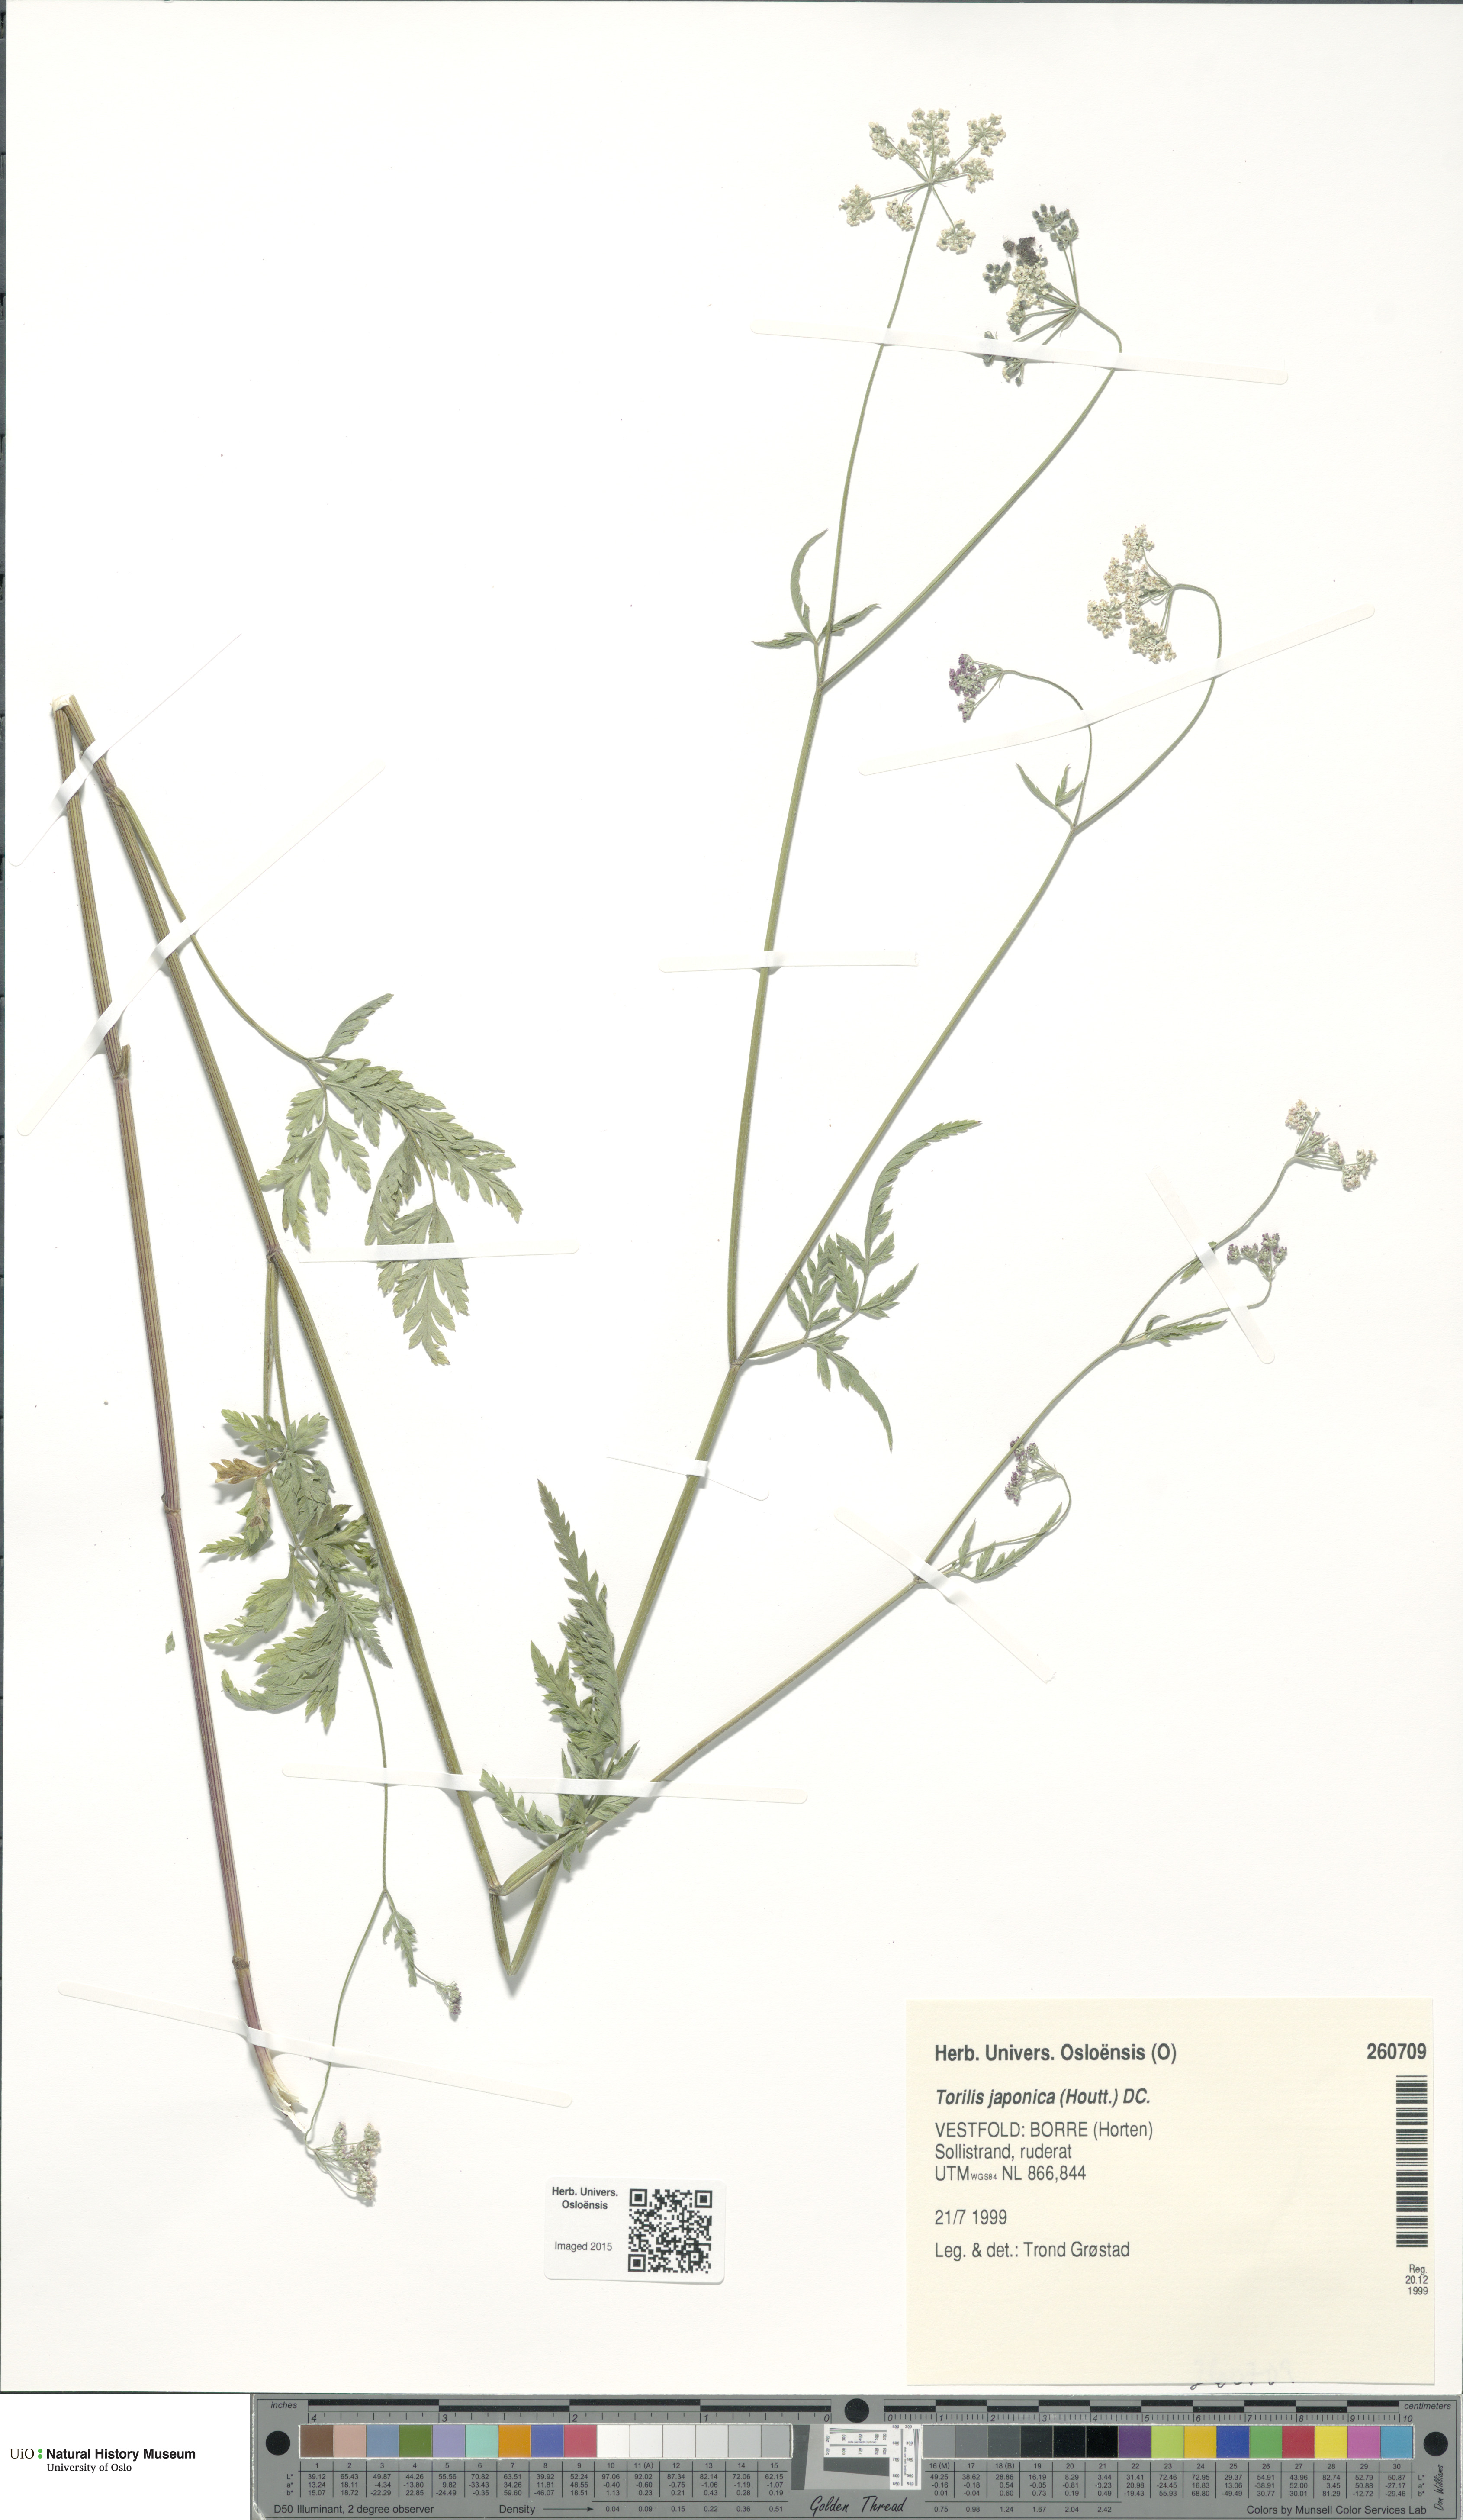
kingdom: Plantae
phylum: Tracheophyta
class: Magnoliopsida
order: Apiales
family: Apiaceae
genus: Torilis
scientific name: Torilis japonica
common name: Upright hedge-parsley
